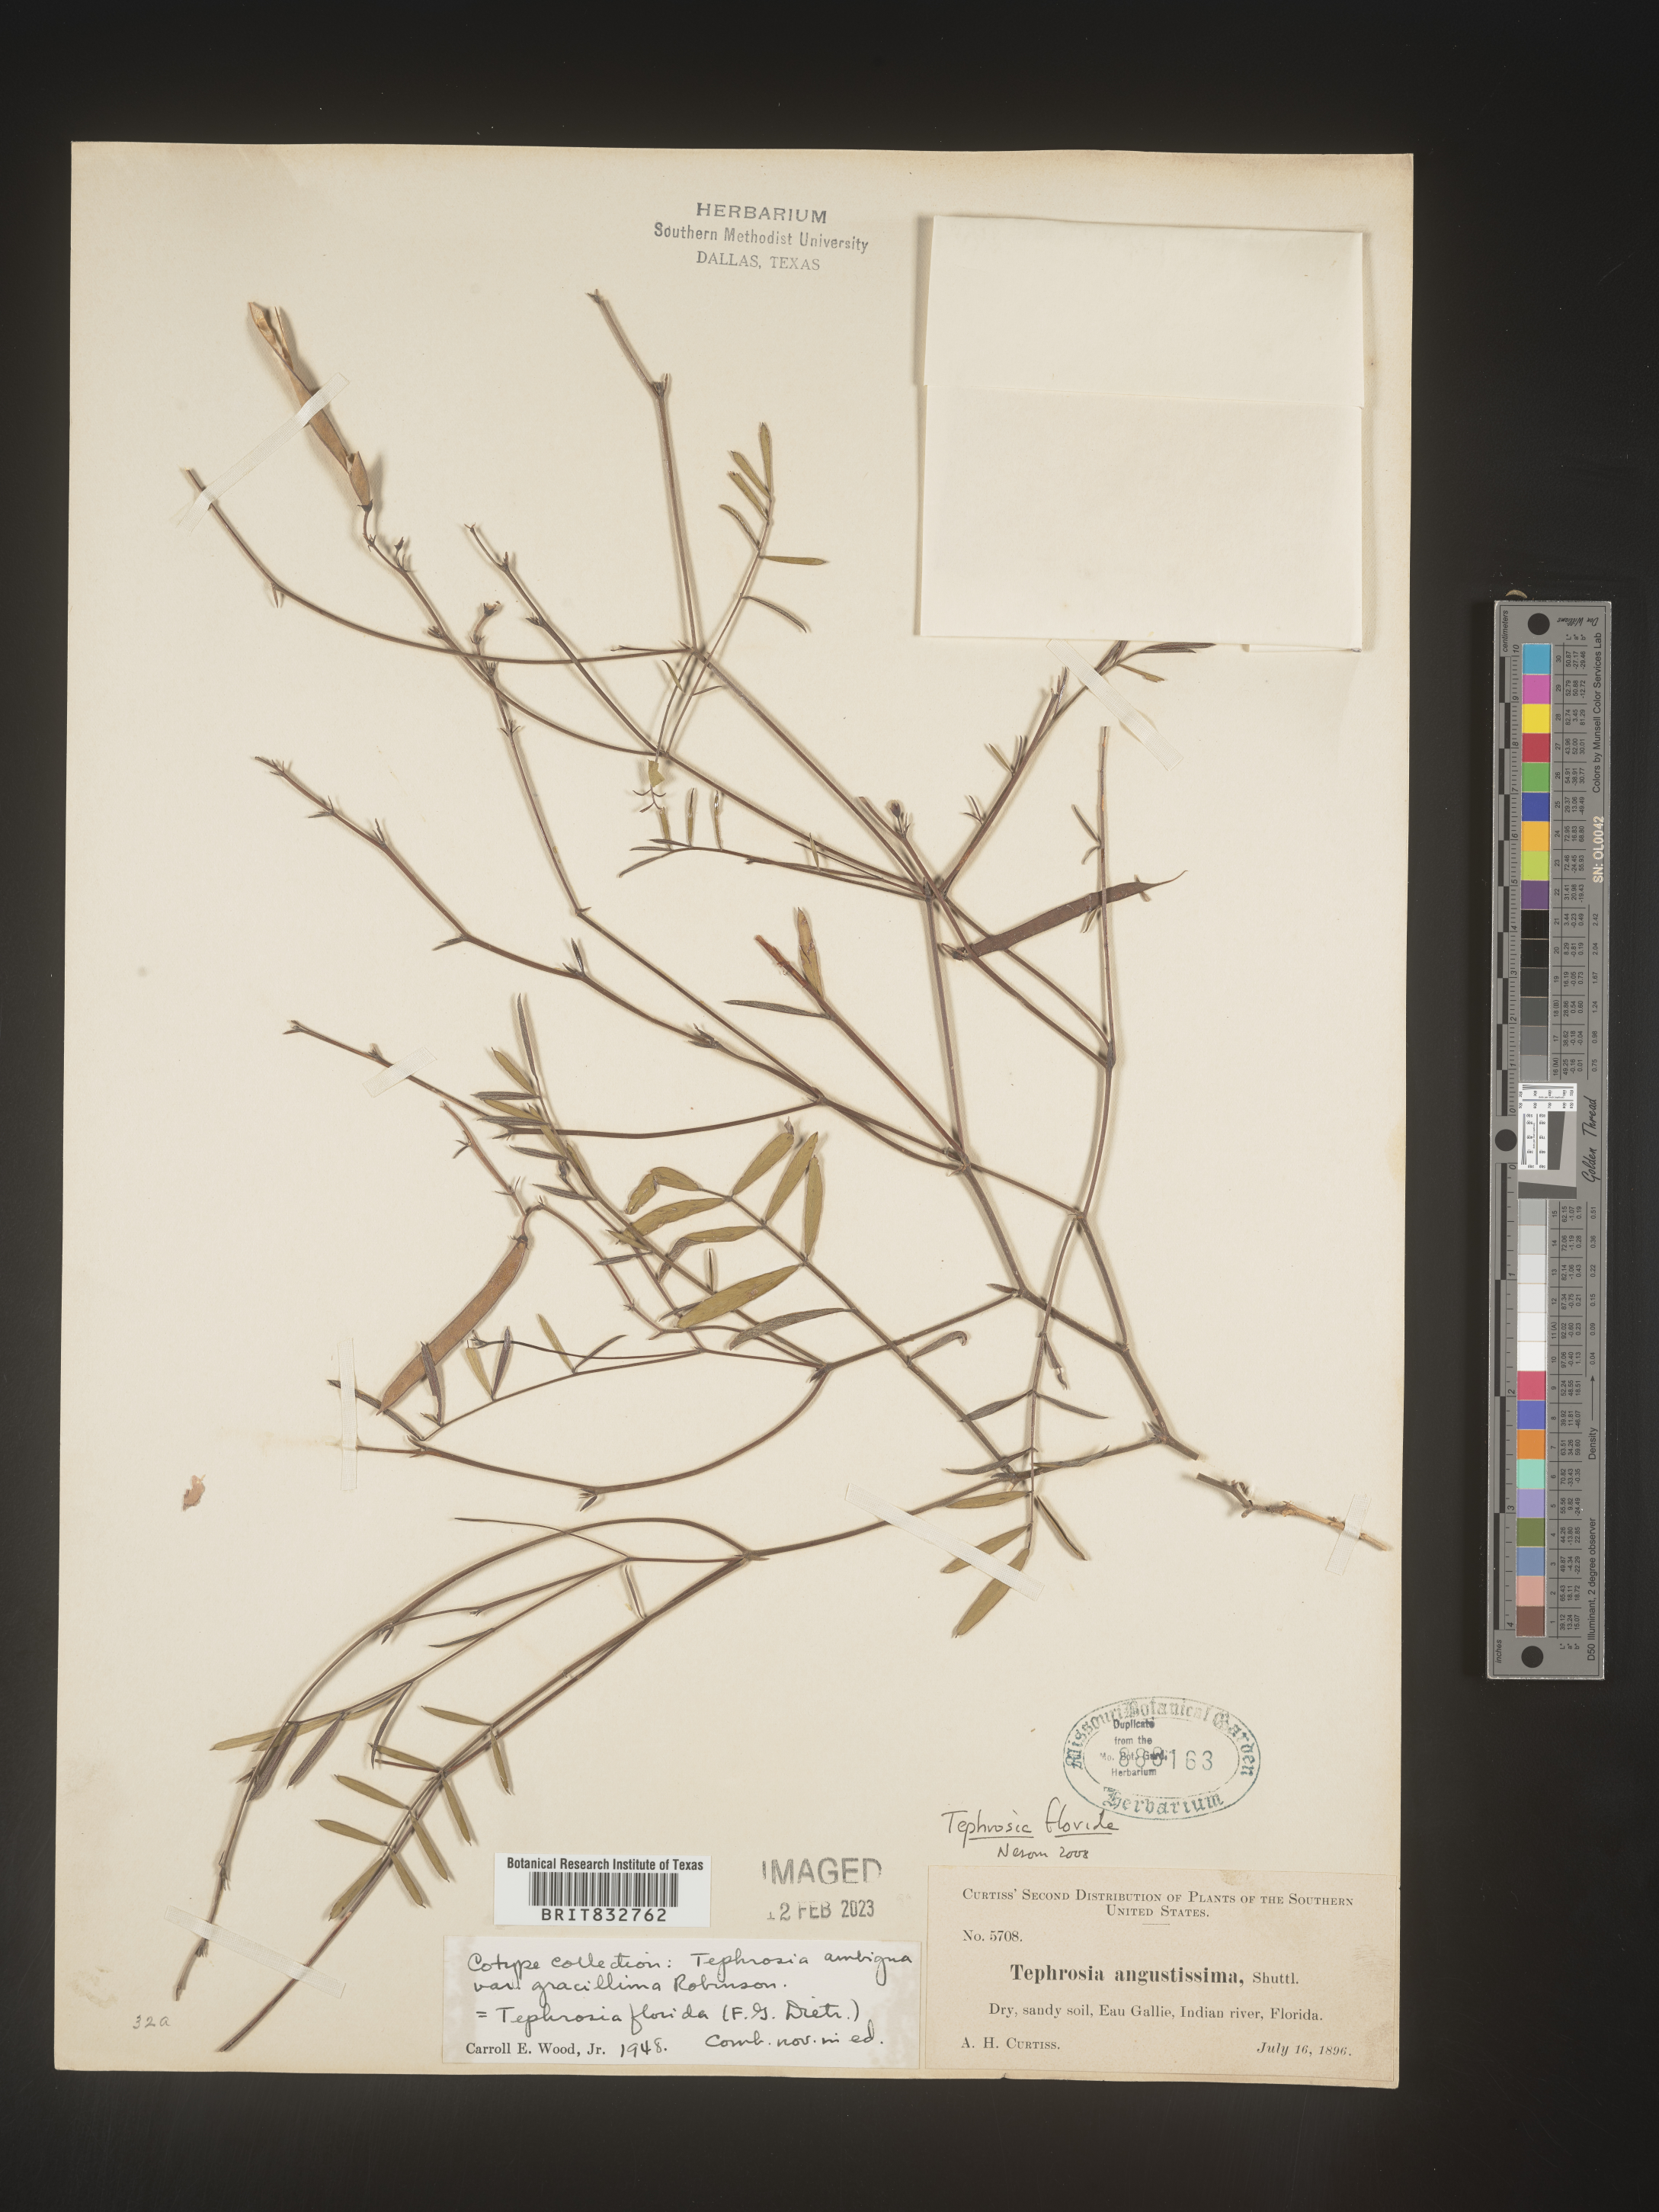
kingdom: Plantae
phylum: Tracheophyta
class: Magnoliopsida
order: Fabales
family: Fabaceae
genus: Tephrosia
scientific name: Tephrosia florida
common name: Florida hoary-pea
